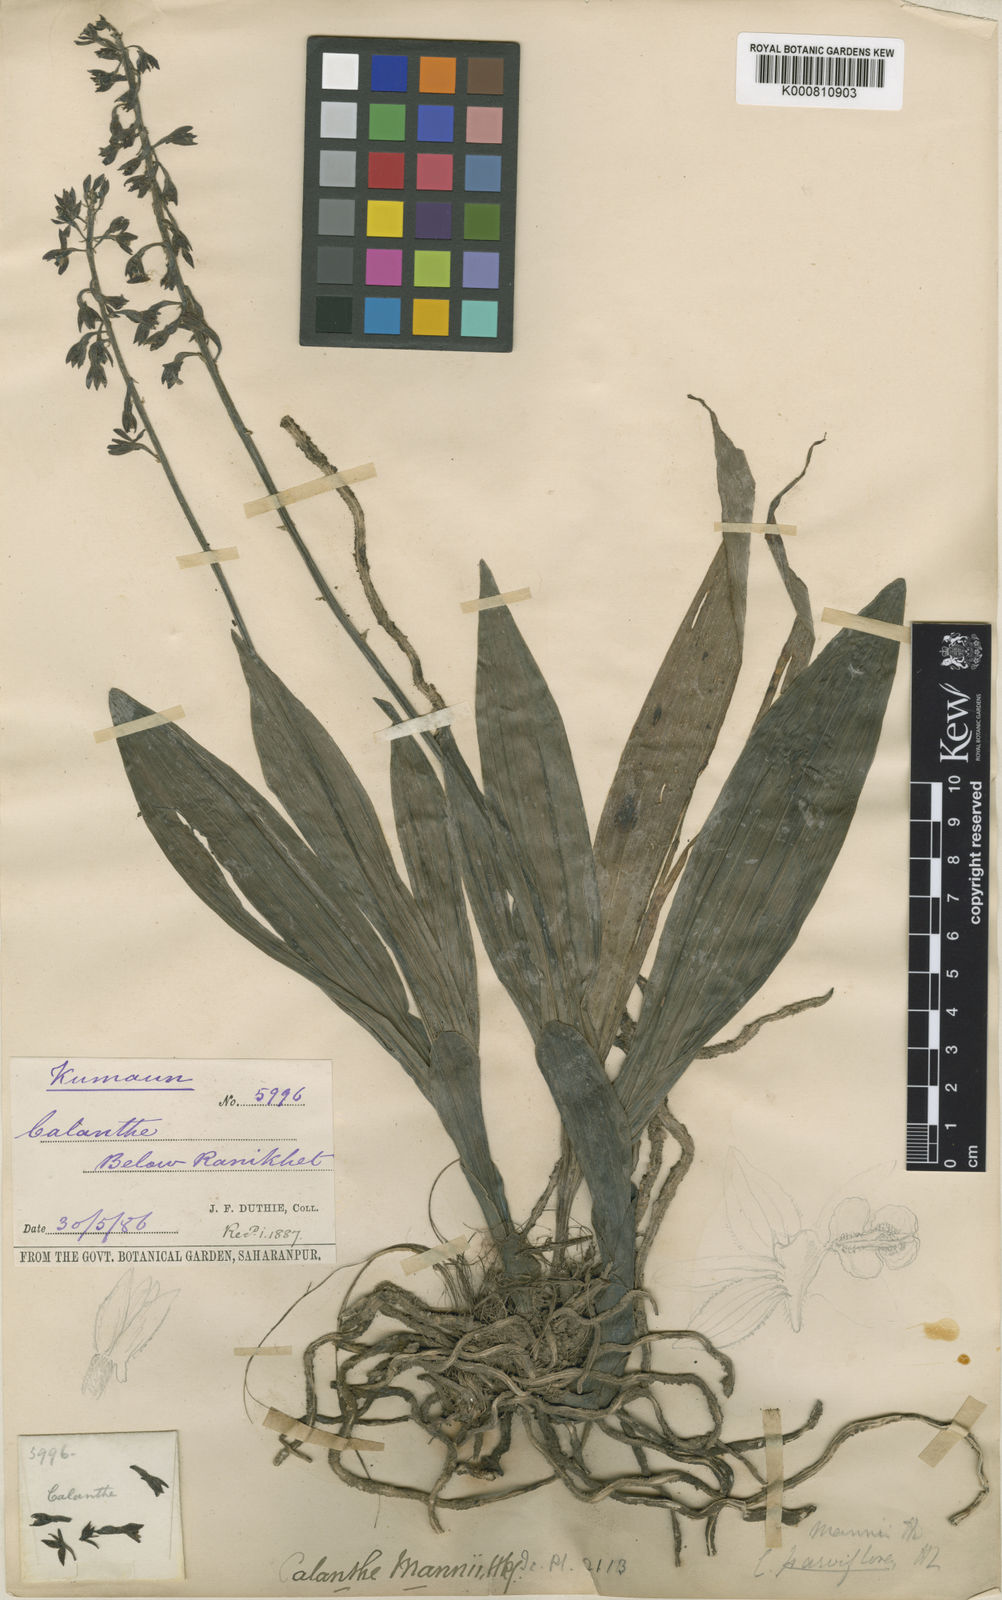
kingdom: Plantae
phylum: Tracheophyta
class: Liliopsida
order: Asparagales
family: Orchidaceae
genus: Calanthe
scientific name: Calanthe mannii
